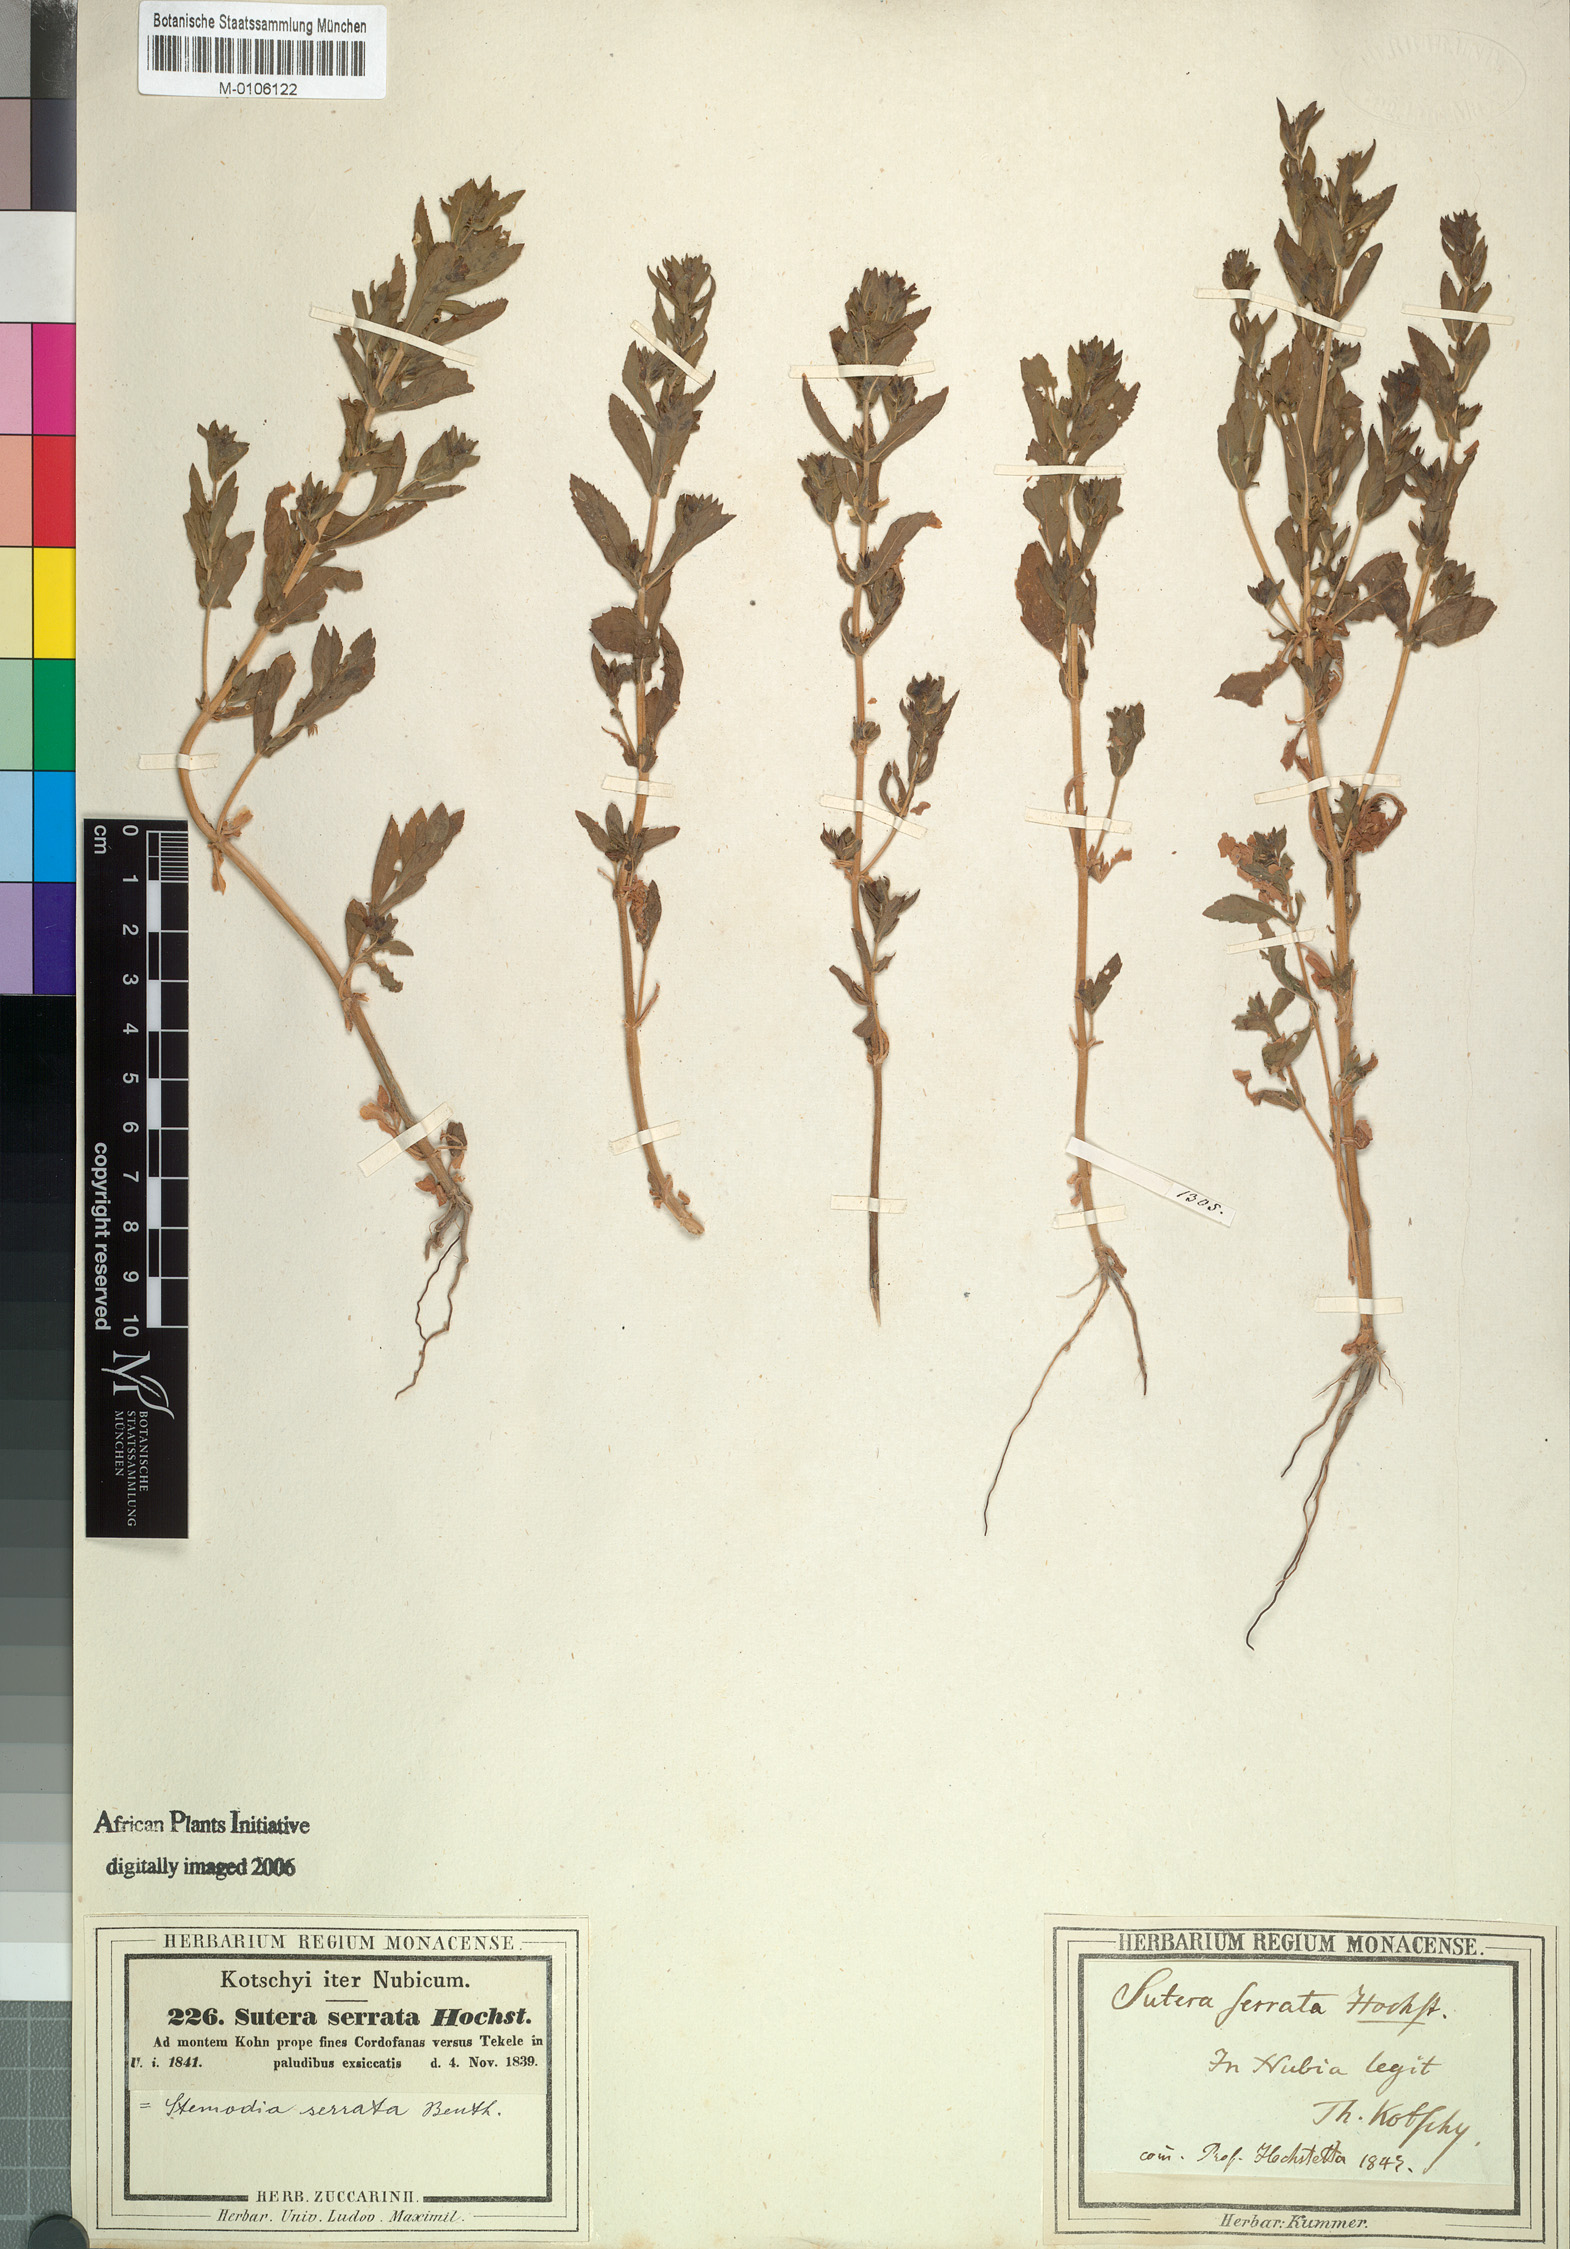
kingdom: Plantae
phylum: Tracheophyta
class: Magnoliopsida
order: Lamiales
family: Plantaginaceae
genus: Stemodia
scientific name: Stemodia serrata
